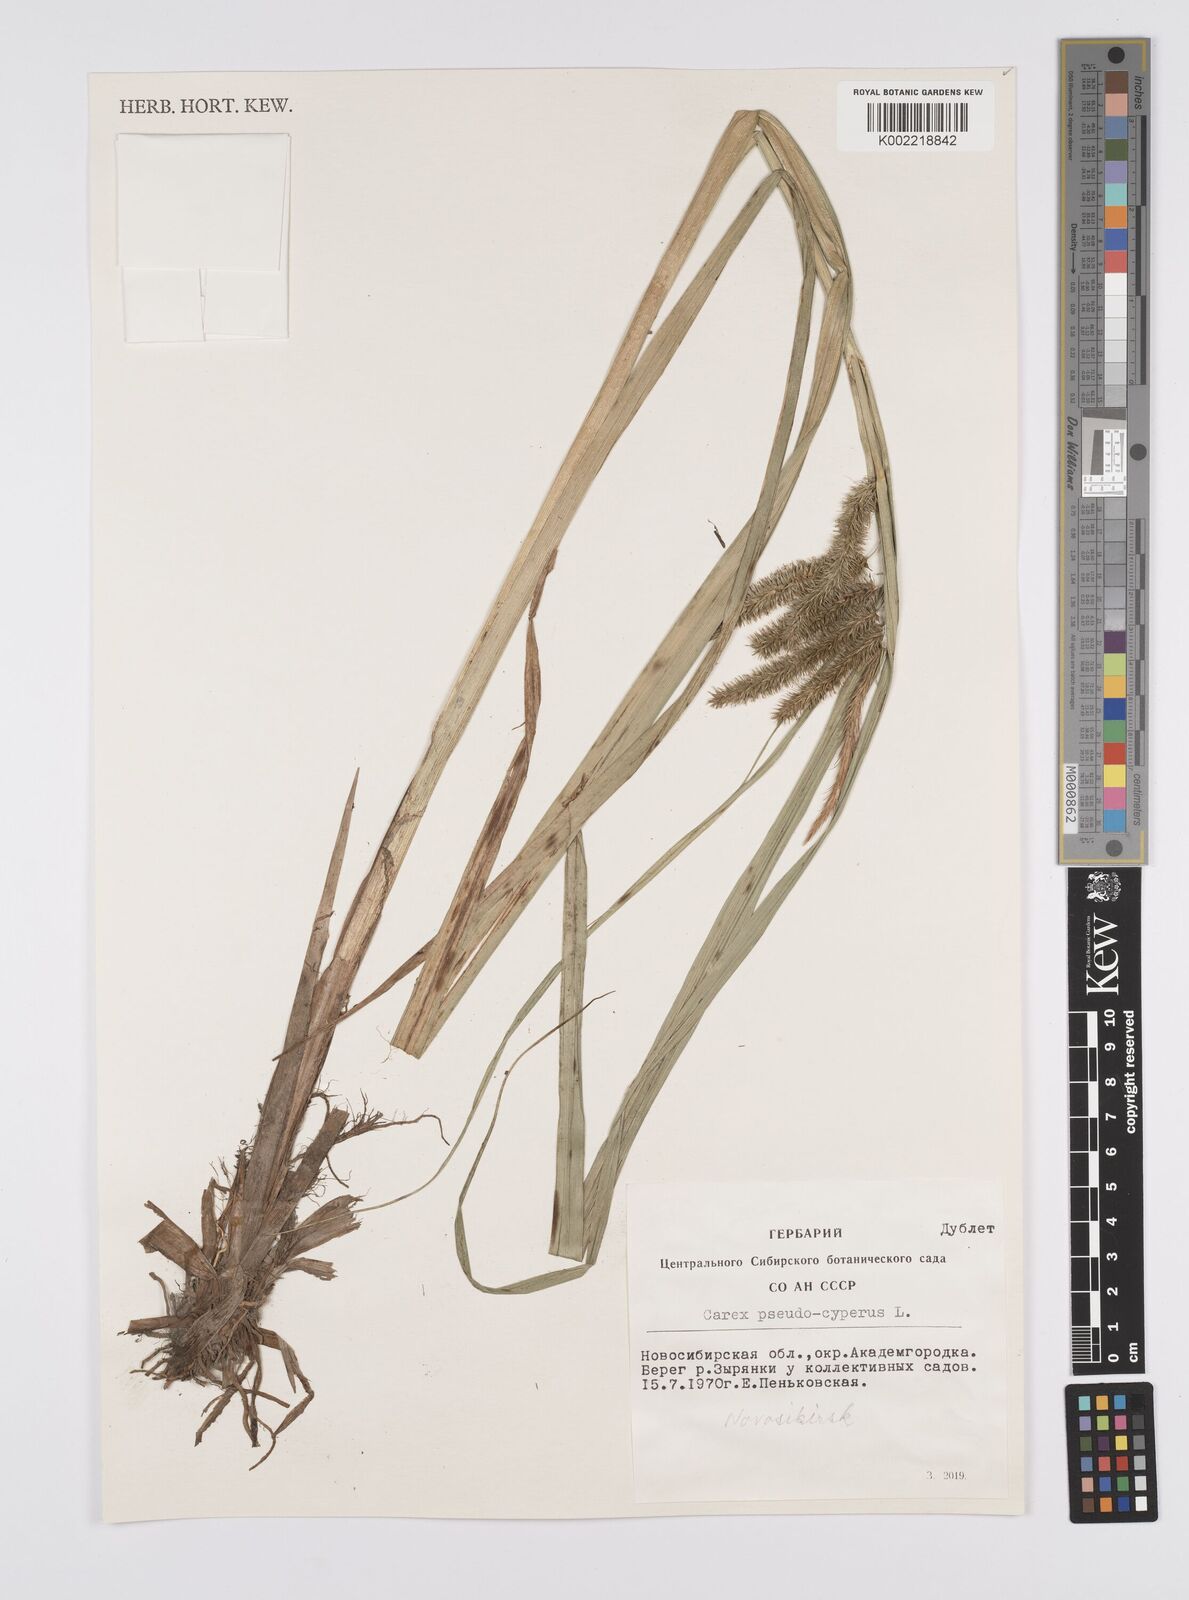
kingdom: Plantae
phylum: Tracheophyta
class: Liliopsida
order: Poales
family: Cyperaceae
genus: Carex
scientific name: Carex pseudocyperus
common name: Cyperus sedge
